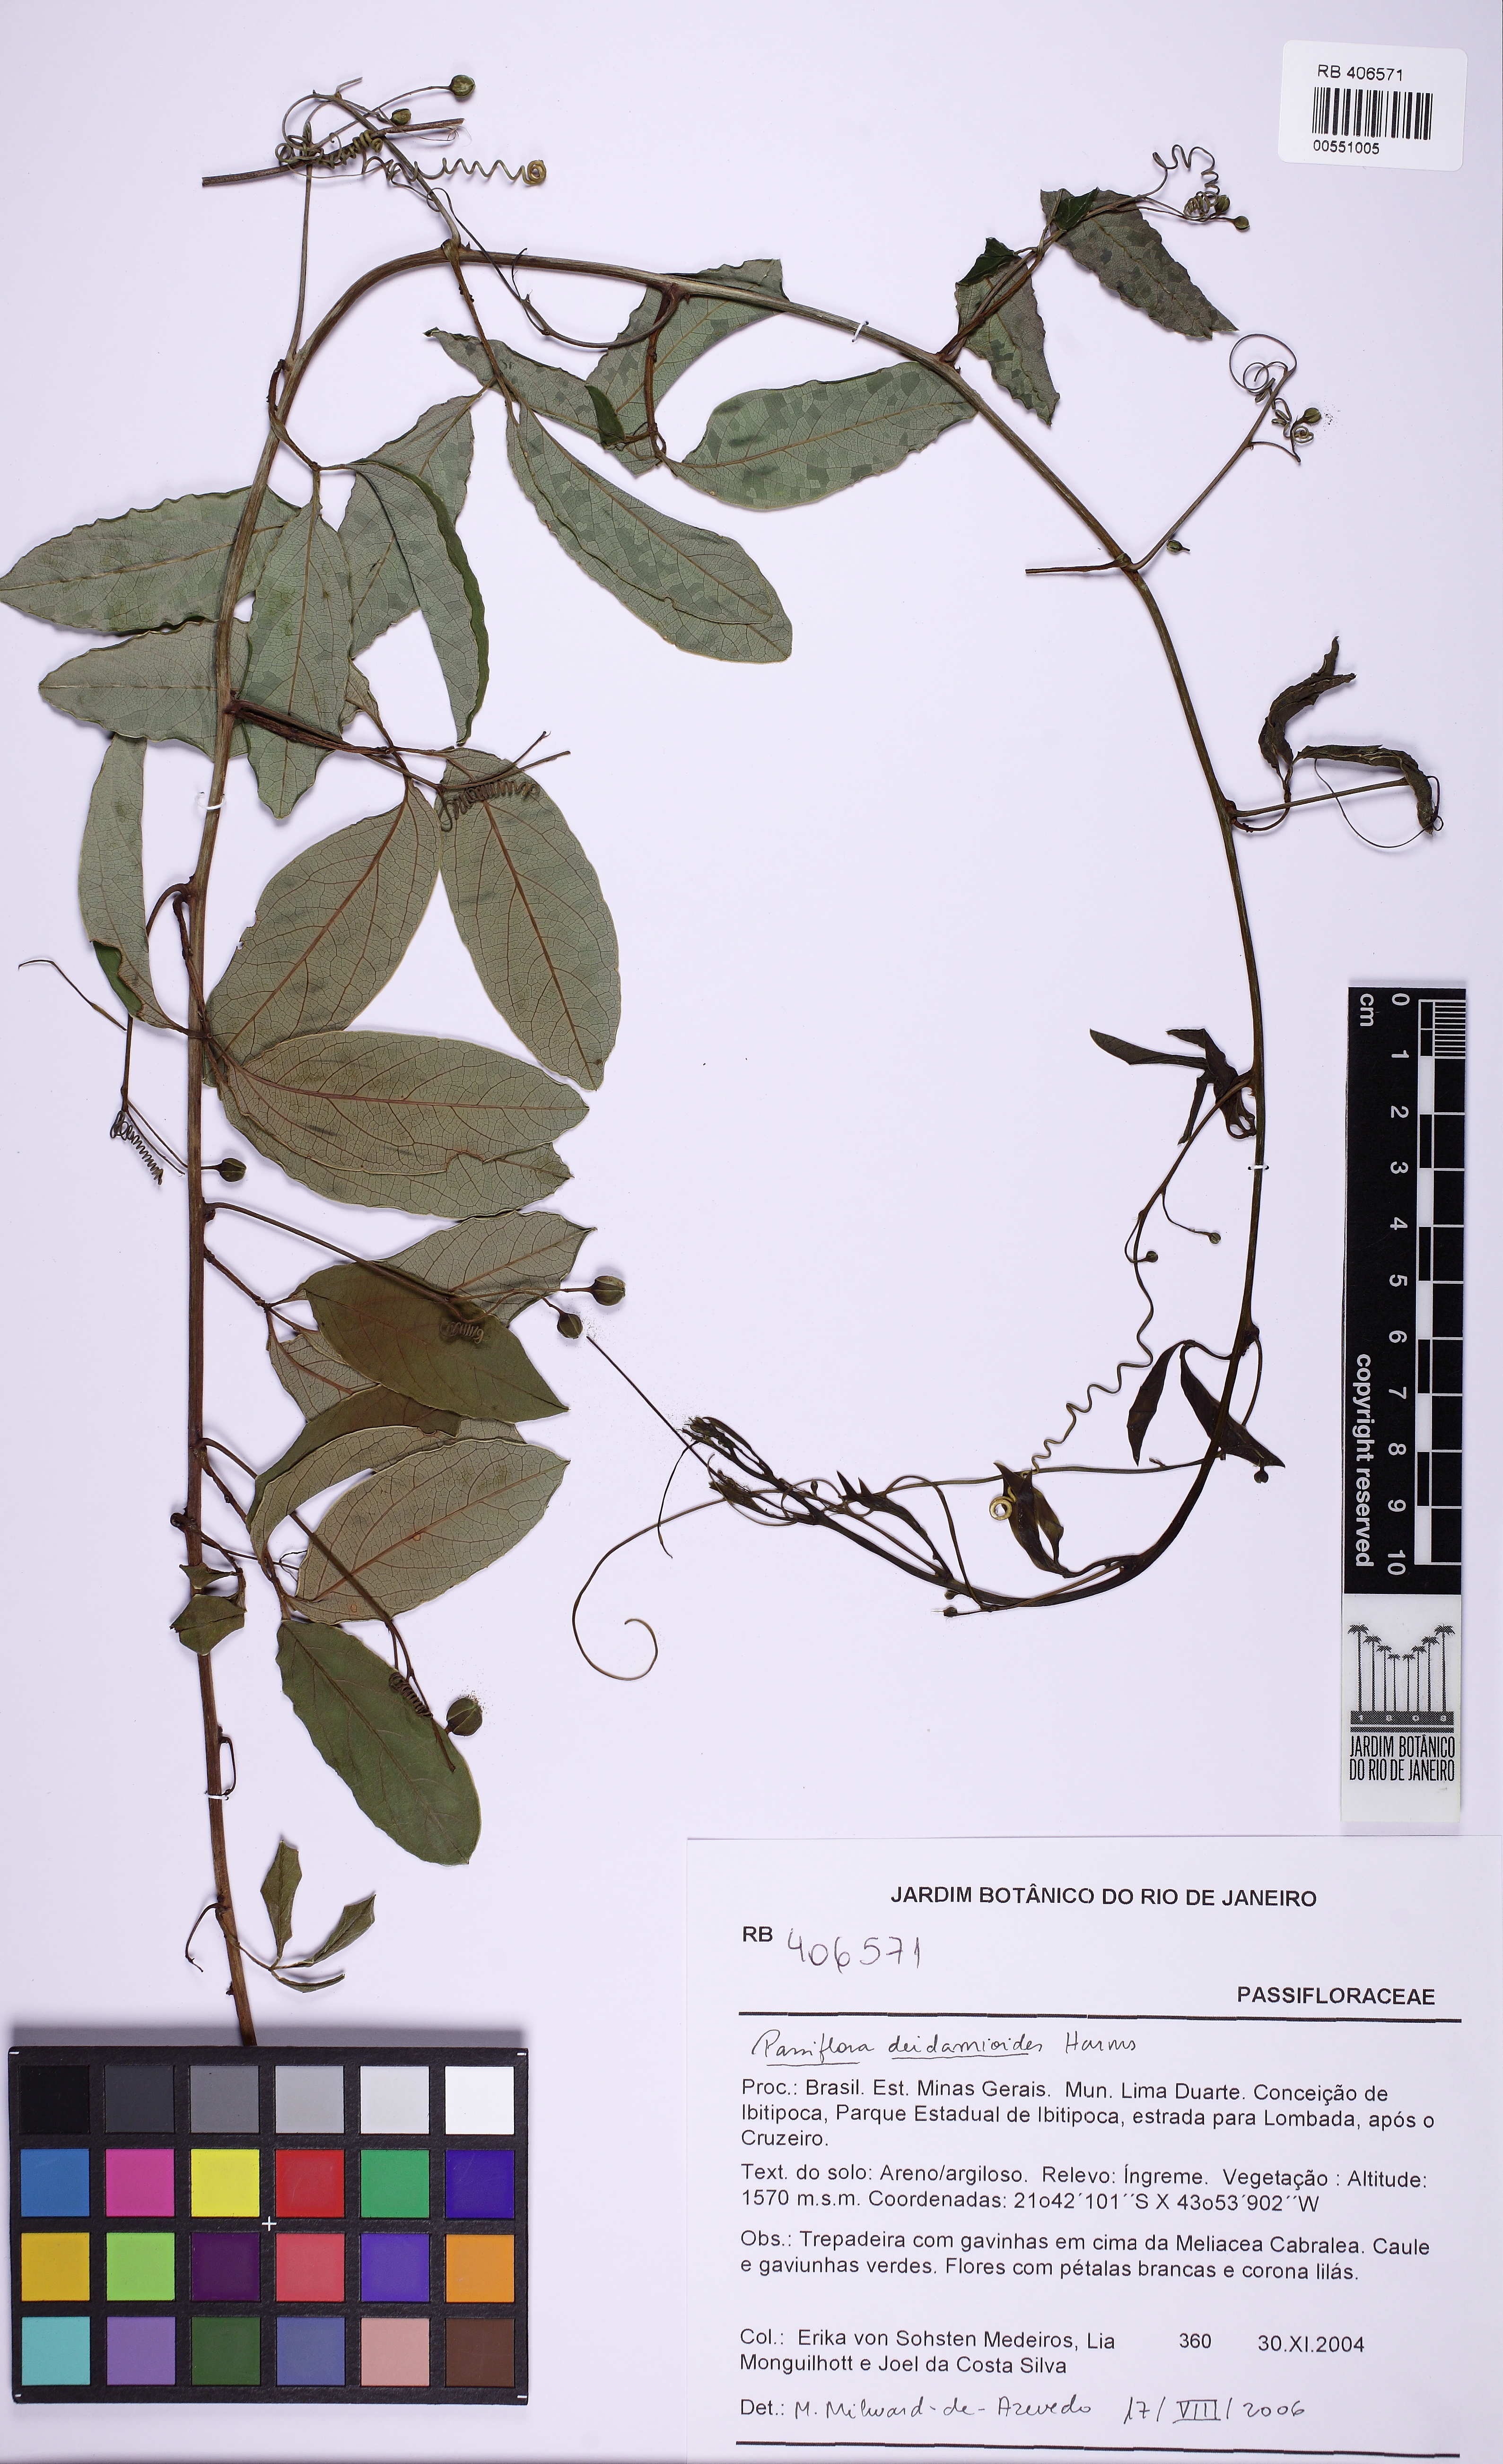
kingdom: Plantae
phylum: Tracheophyta
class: Magnoliopsida
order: Malpighiales
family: Passifloraceae
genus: Passiflora
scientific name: Passiflora deidamioides
